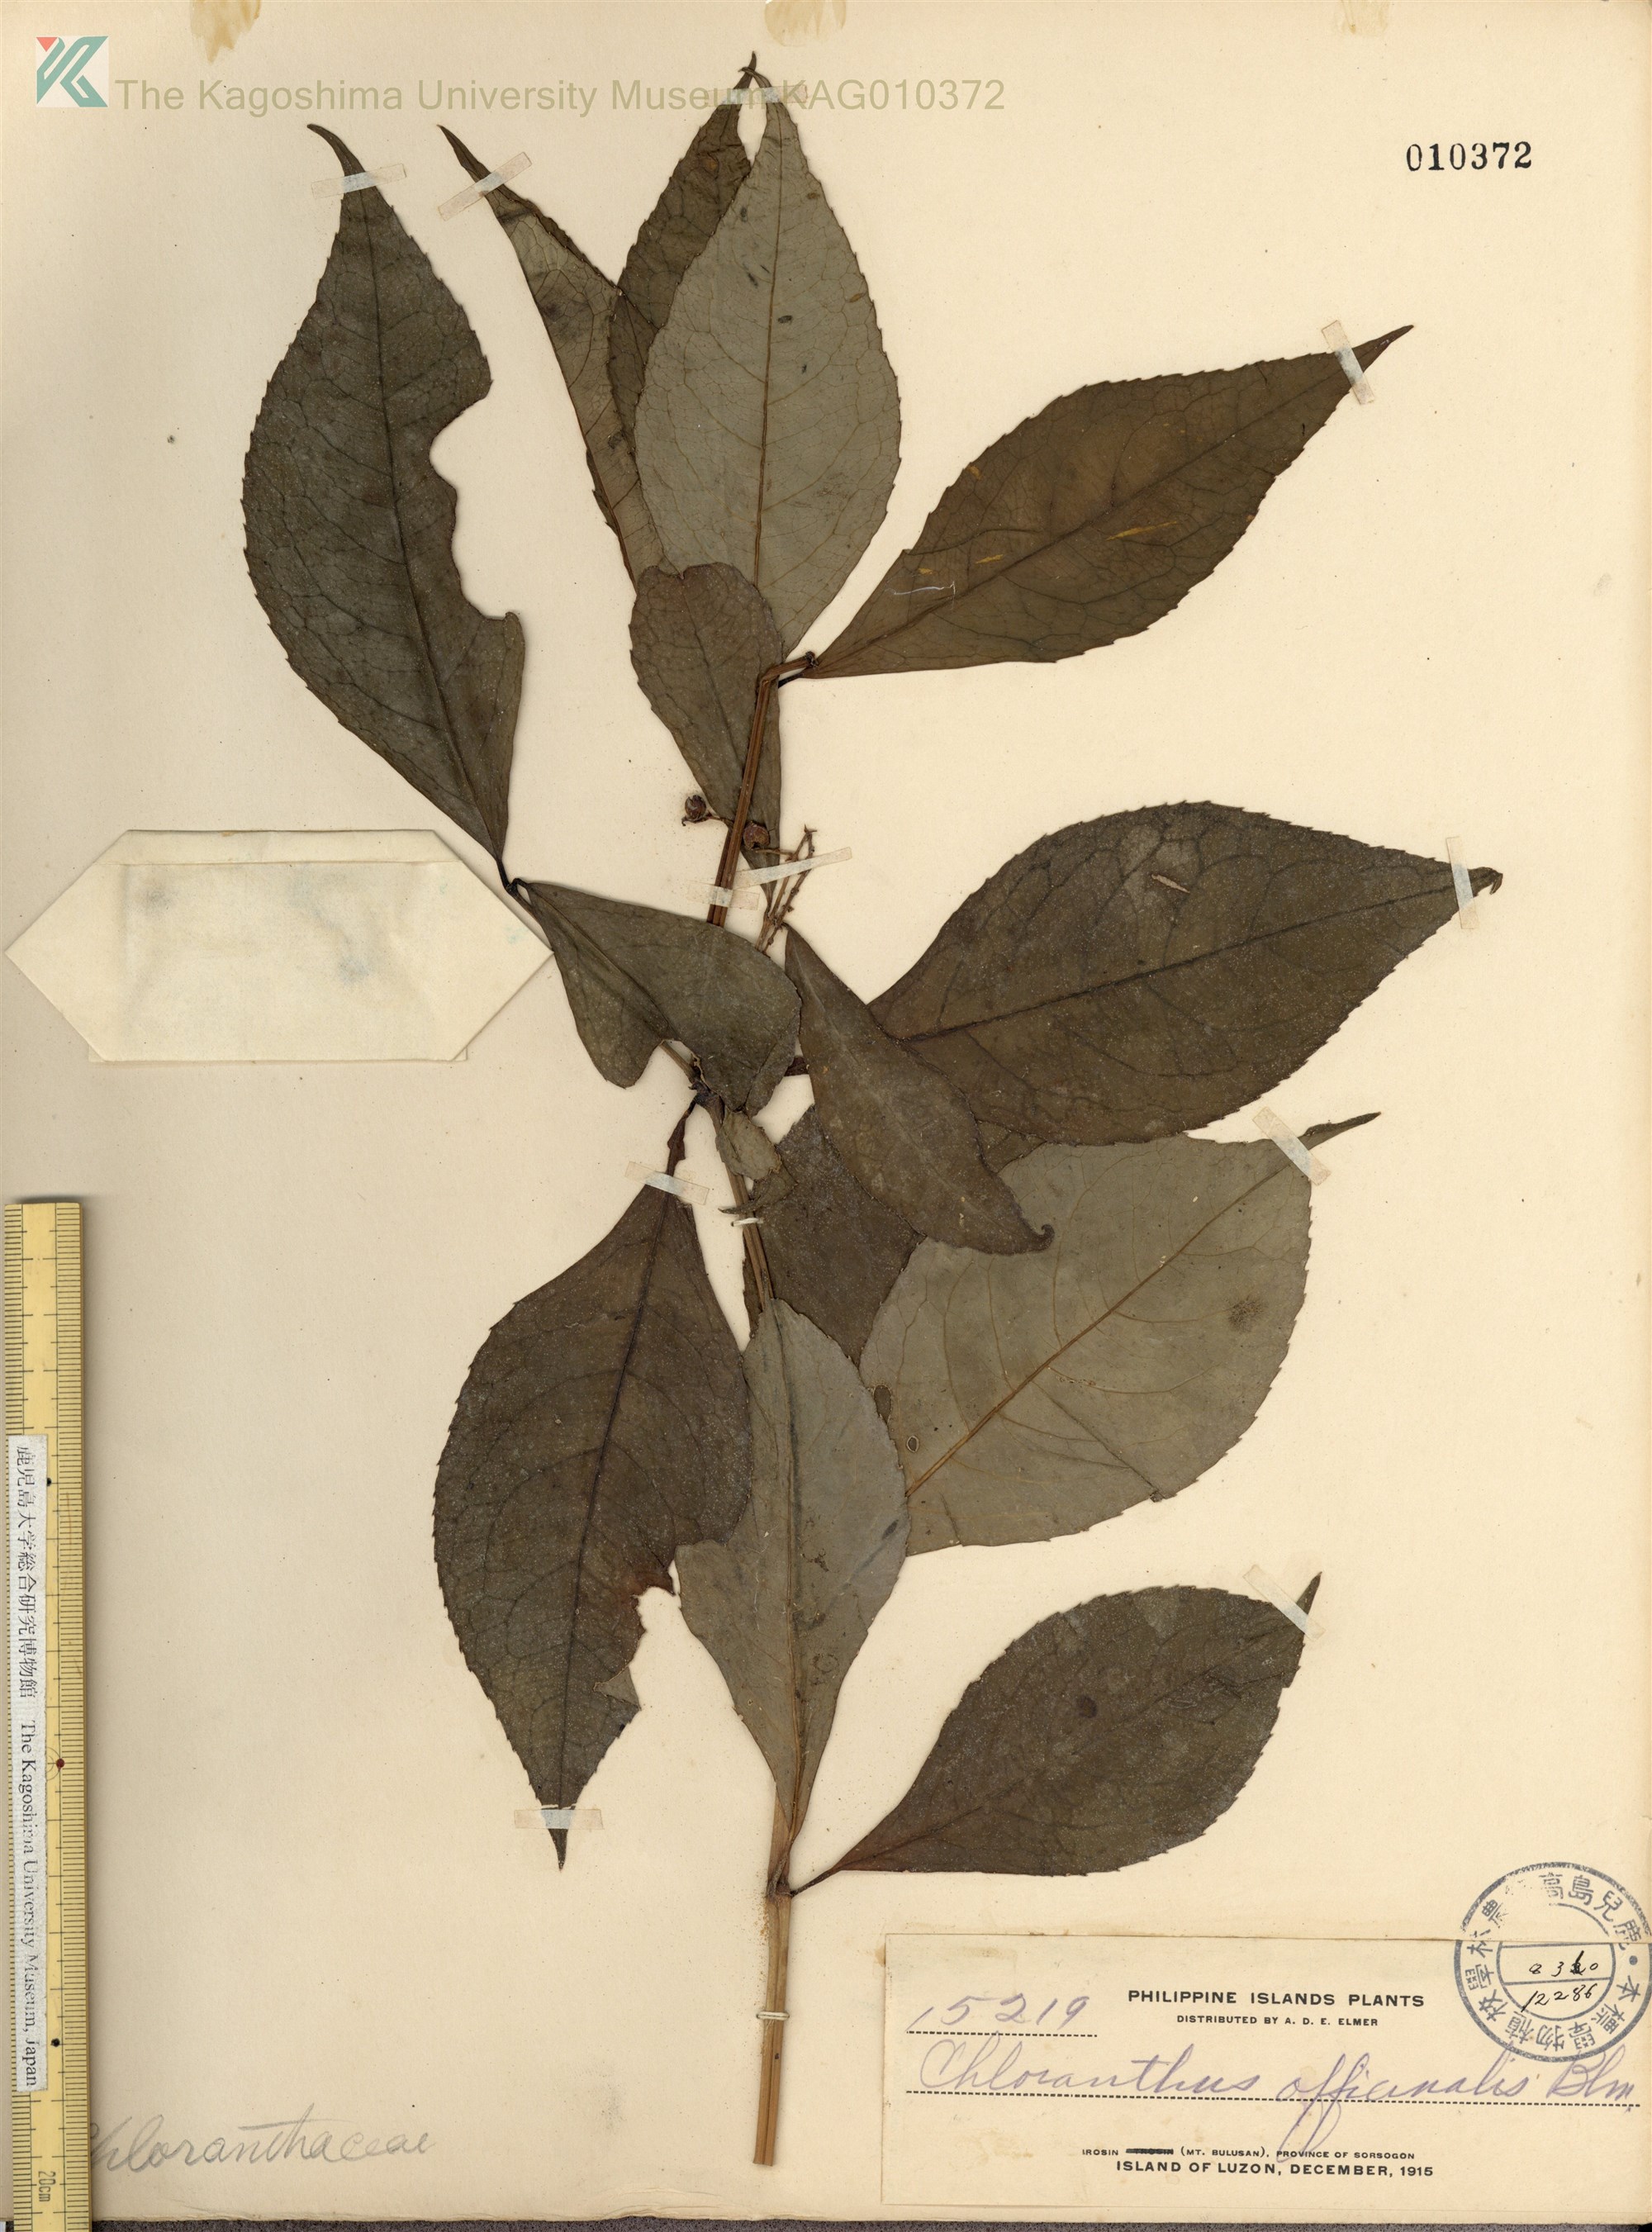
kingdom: Plantae
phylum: Tracheophyta
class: Magnoliopsida
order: Chloranthales
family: Chloranthaceae
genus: Chloranthus
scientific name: Chloranthus elatior
